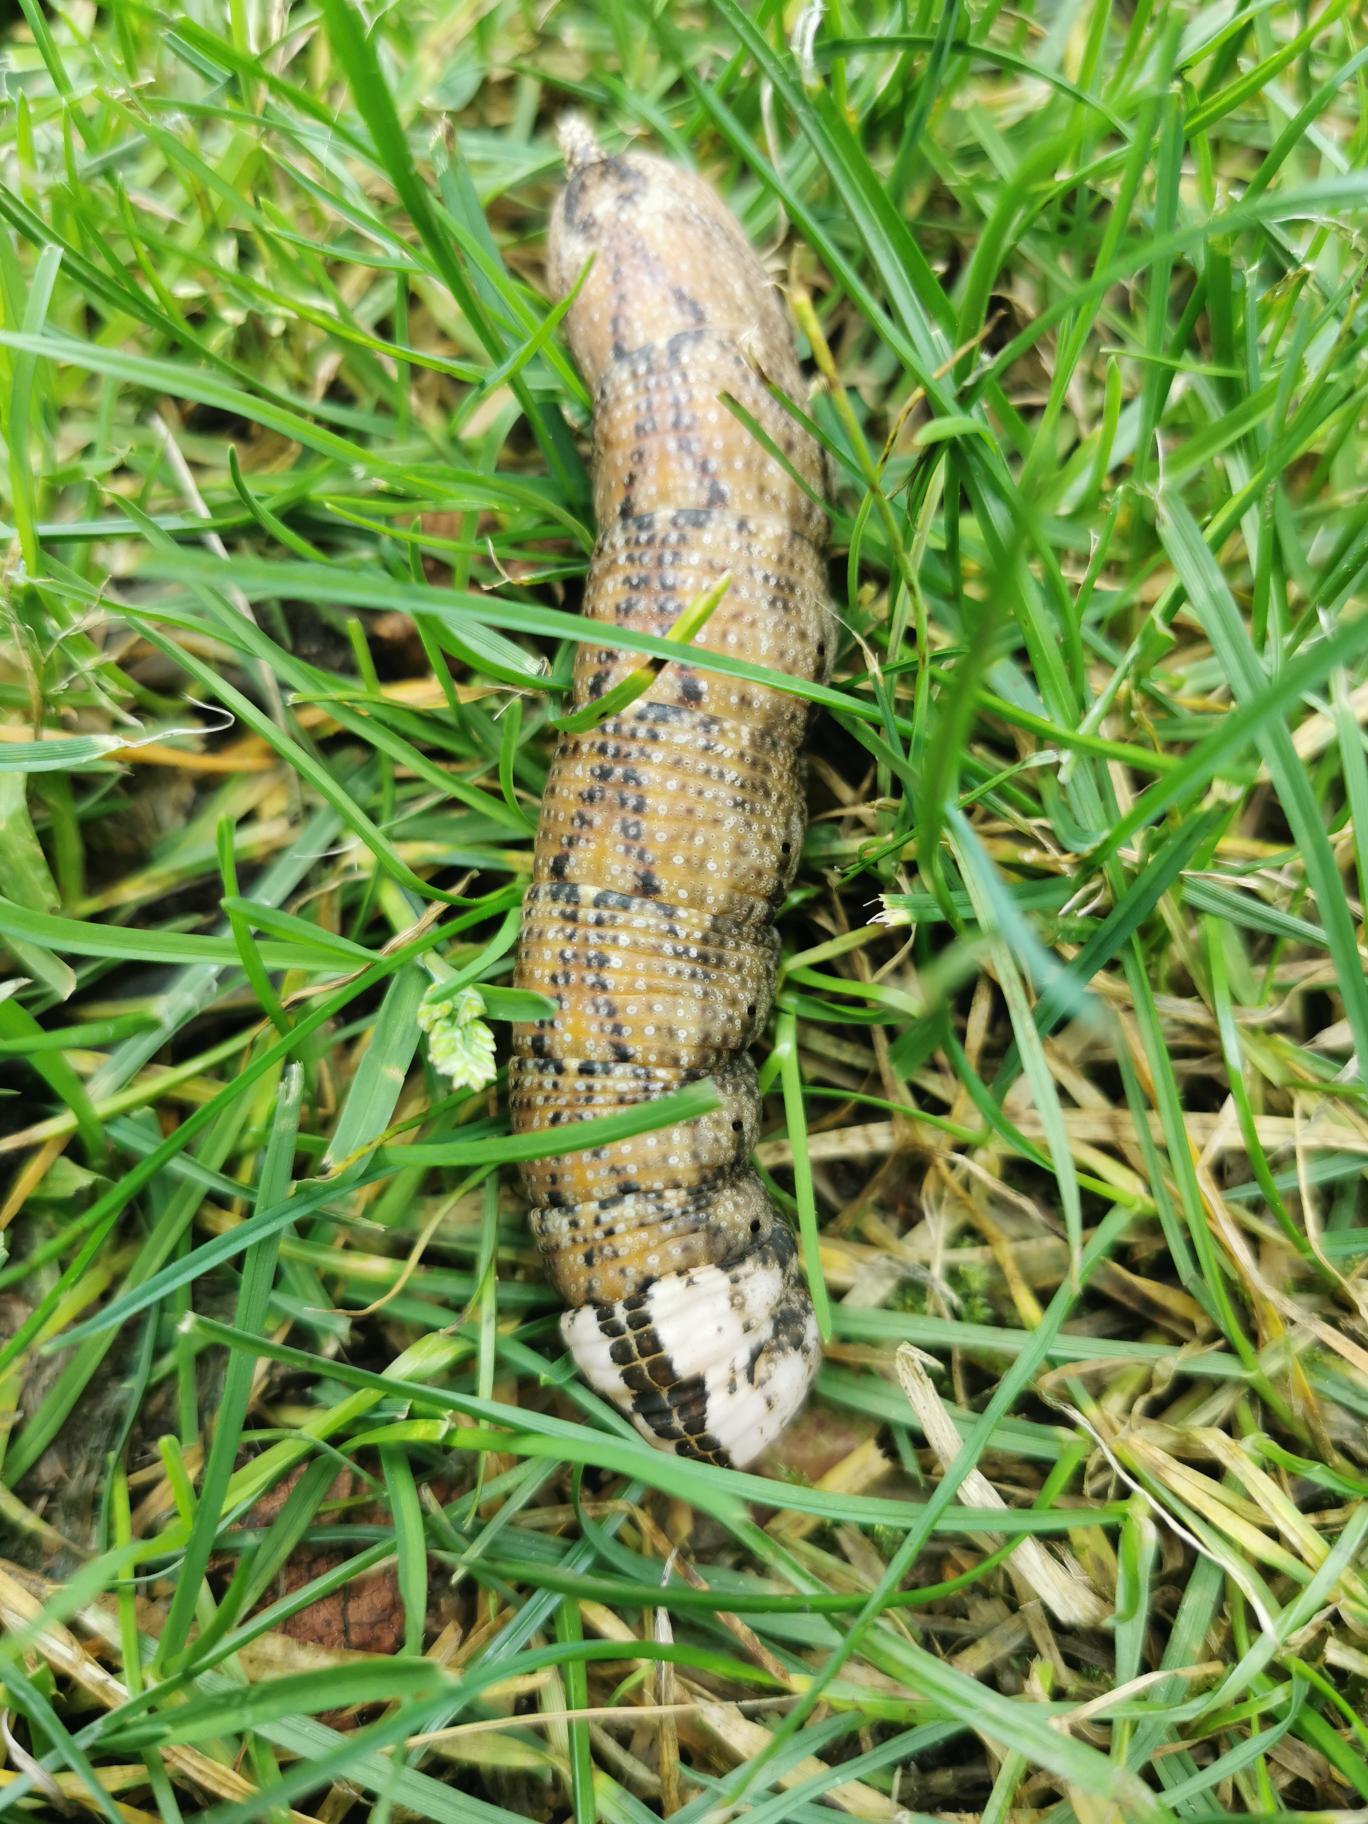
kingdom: Animalia
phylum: Arthropoda
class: Insecta
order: Lepidoptera
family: Sphingidae
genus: Acherontia
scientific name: Acherontia atropos
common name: Dødningehoved
